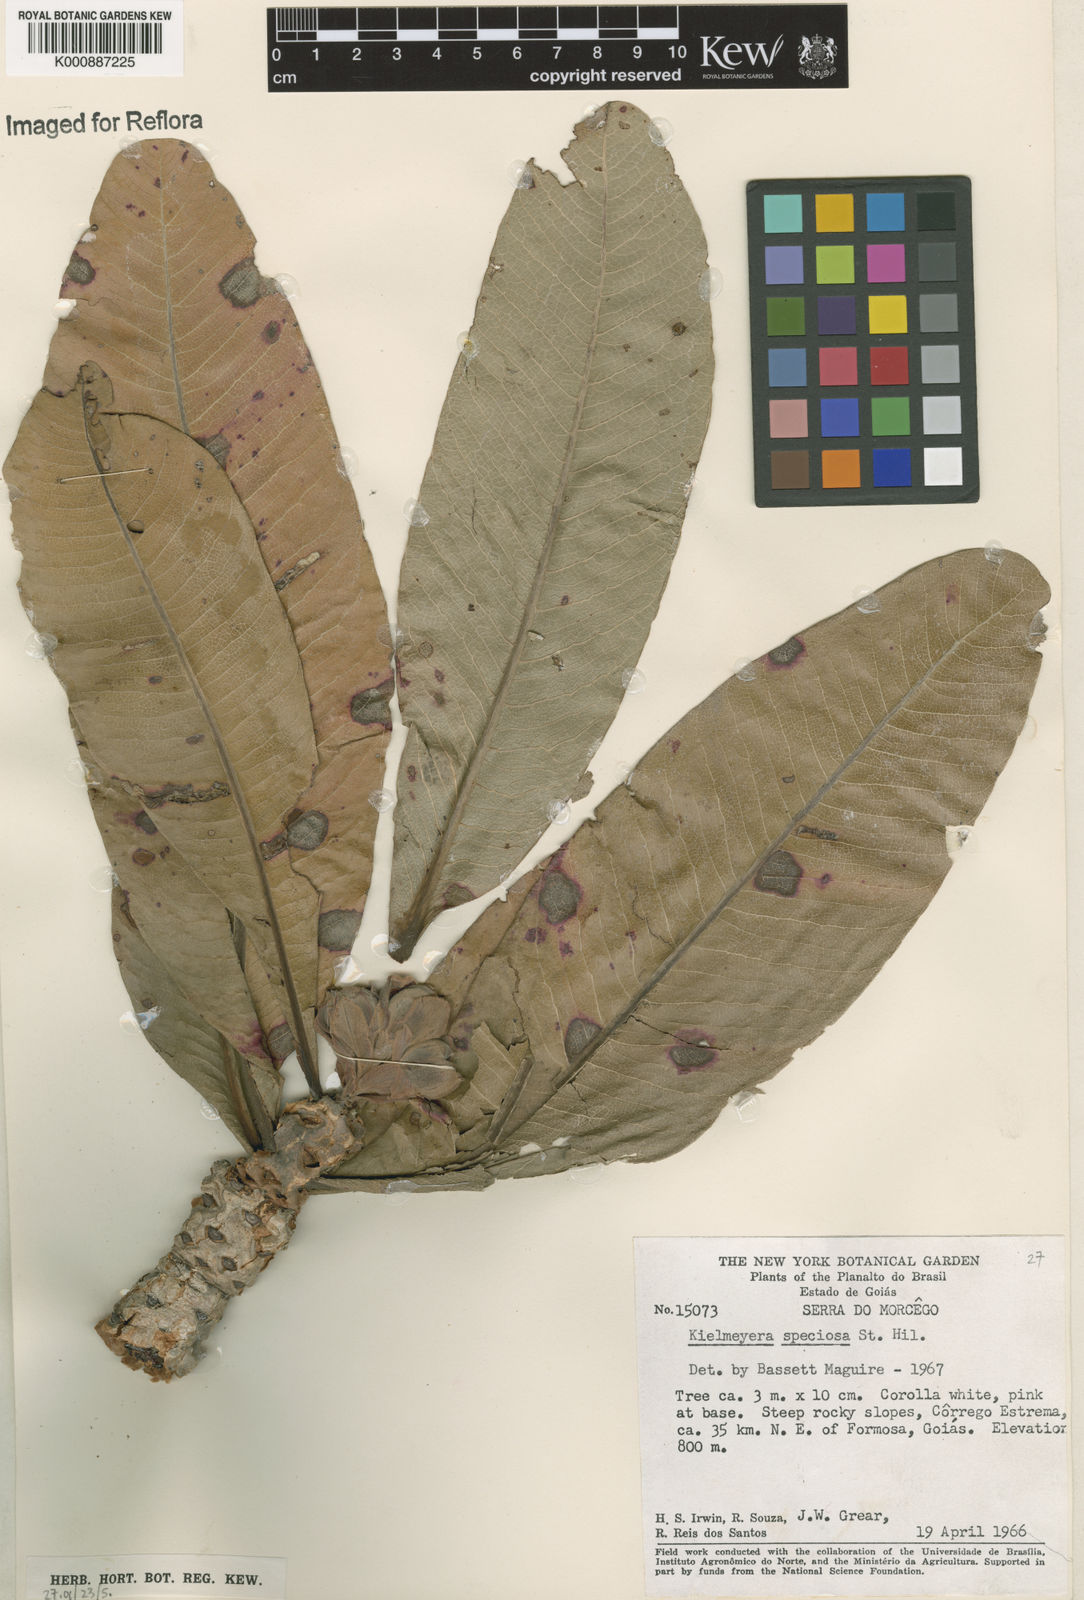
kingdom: Plantae
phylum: Tracheophyta
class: Magnoliopsida
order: Malpighiales
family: Calophyllaceae
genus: Kielmeyera
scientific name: Kielmeyera speciosa
